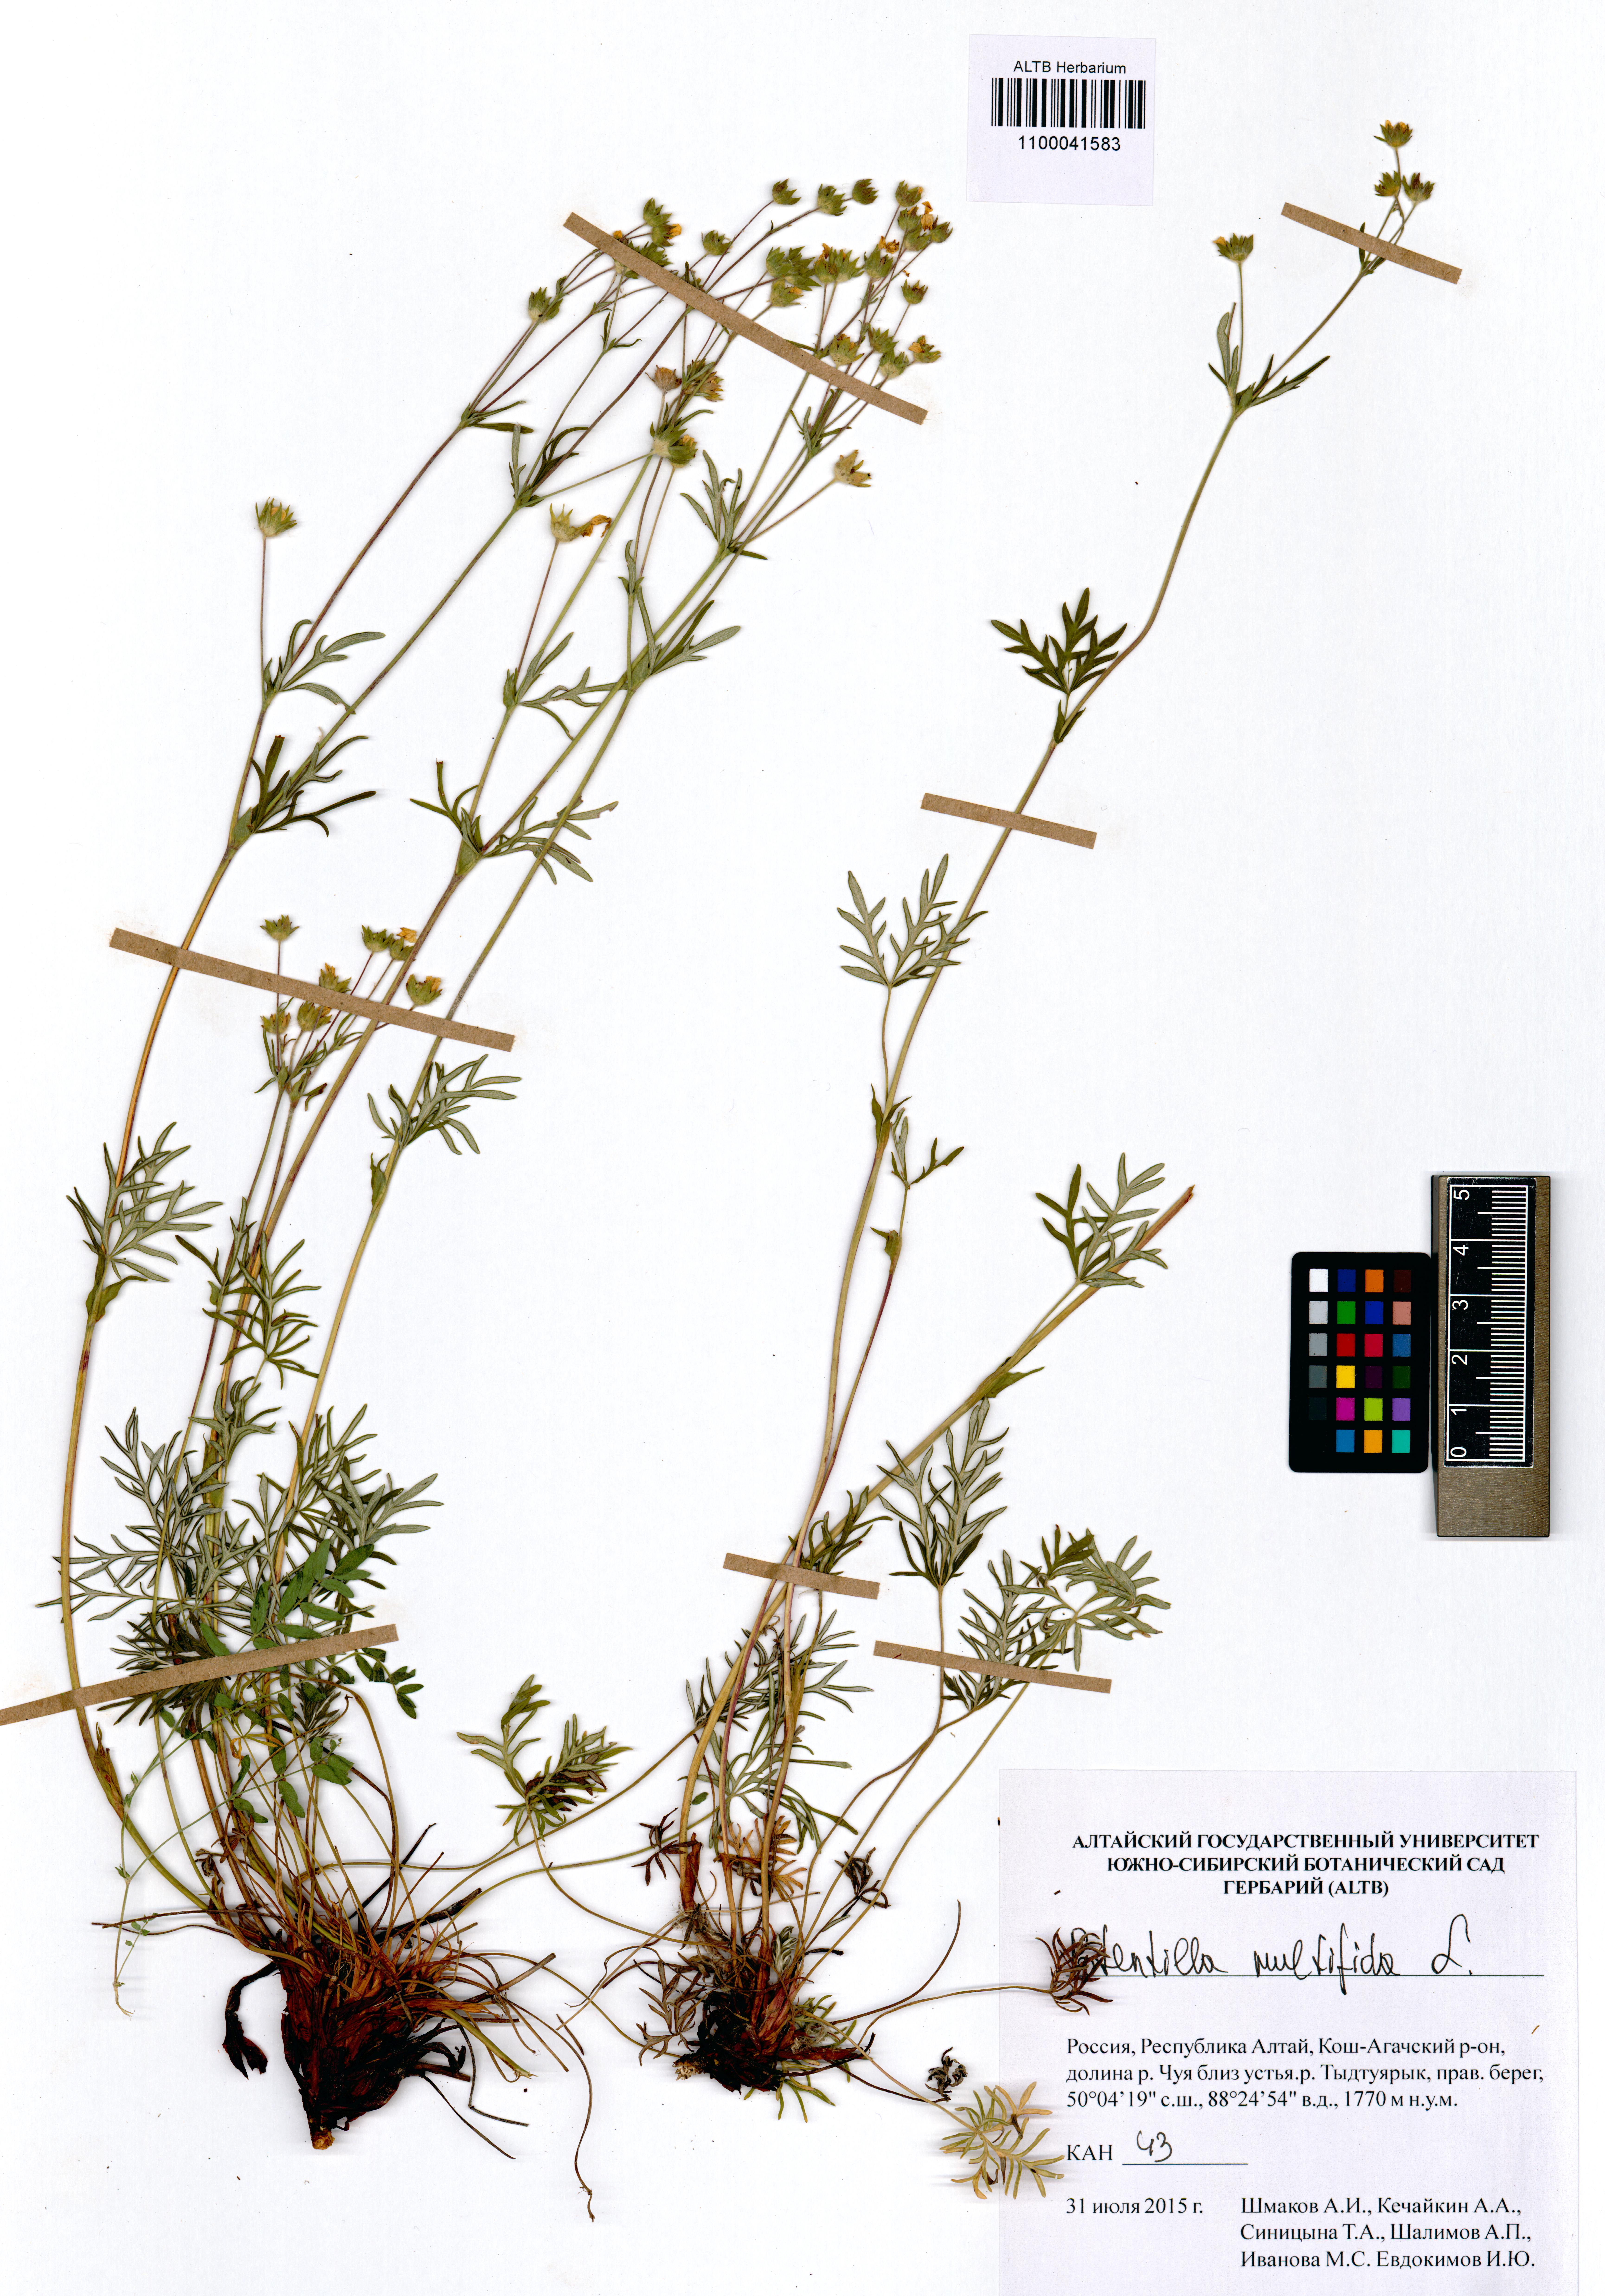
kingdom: Plantae
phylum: Tracheophyta
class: Magnoliopsida
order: Rosales
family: Rosaceae
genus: Potentilla
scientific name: Potentilla multifida
